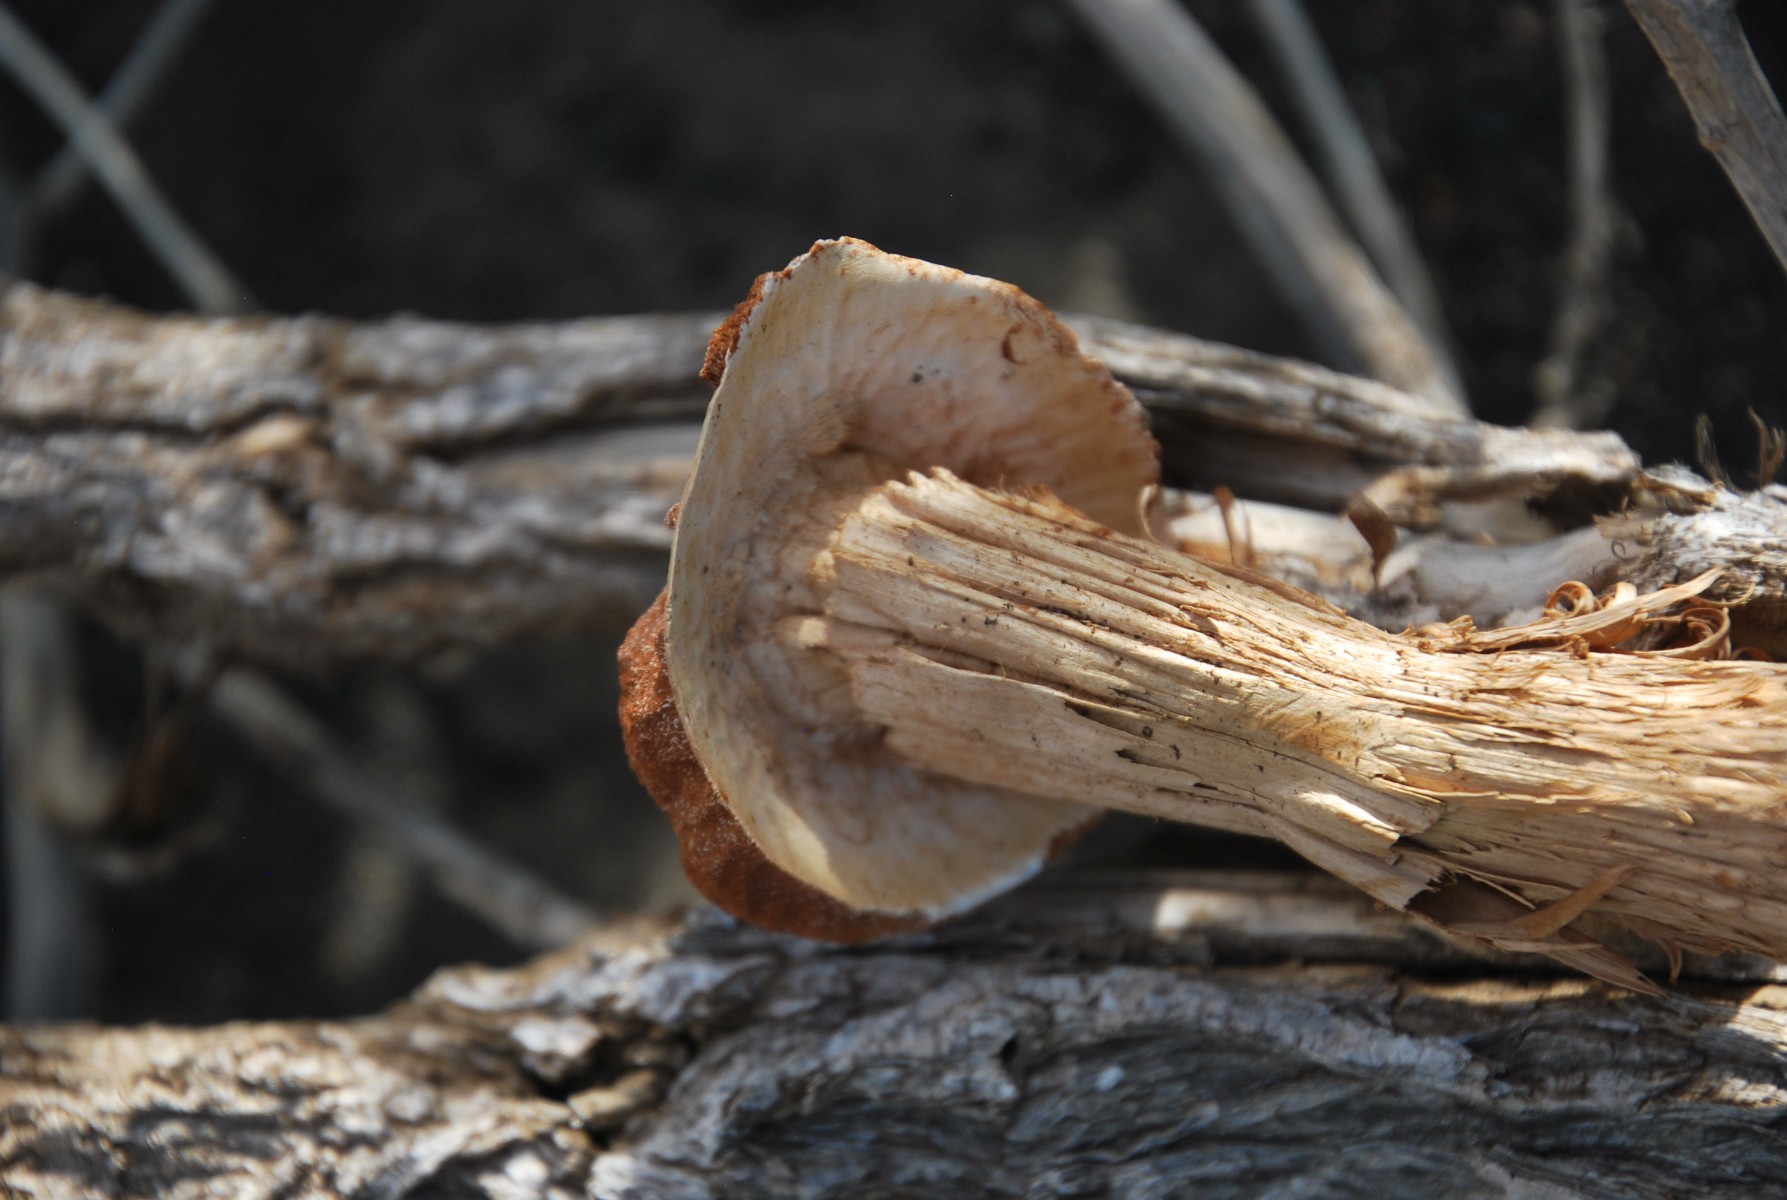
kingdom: Fungi
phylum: Basidiomycota
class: Agaricomycetes
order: Agaricales
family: Agaricaceae
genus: Battarrea
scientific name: Battarrea phalloides
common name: Sandy stiltball
